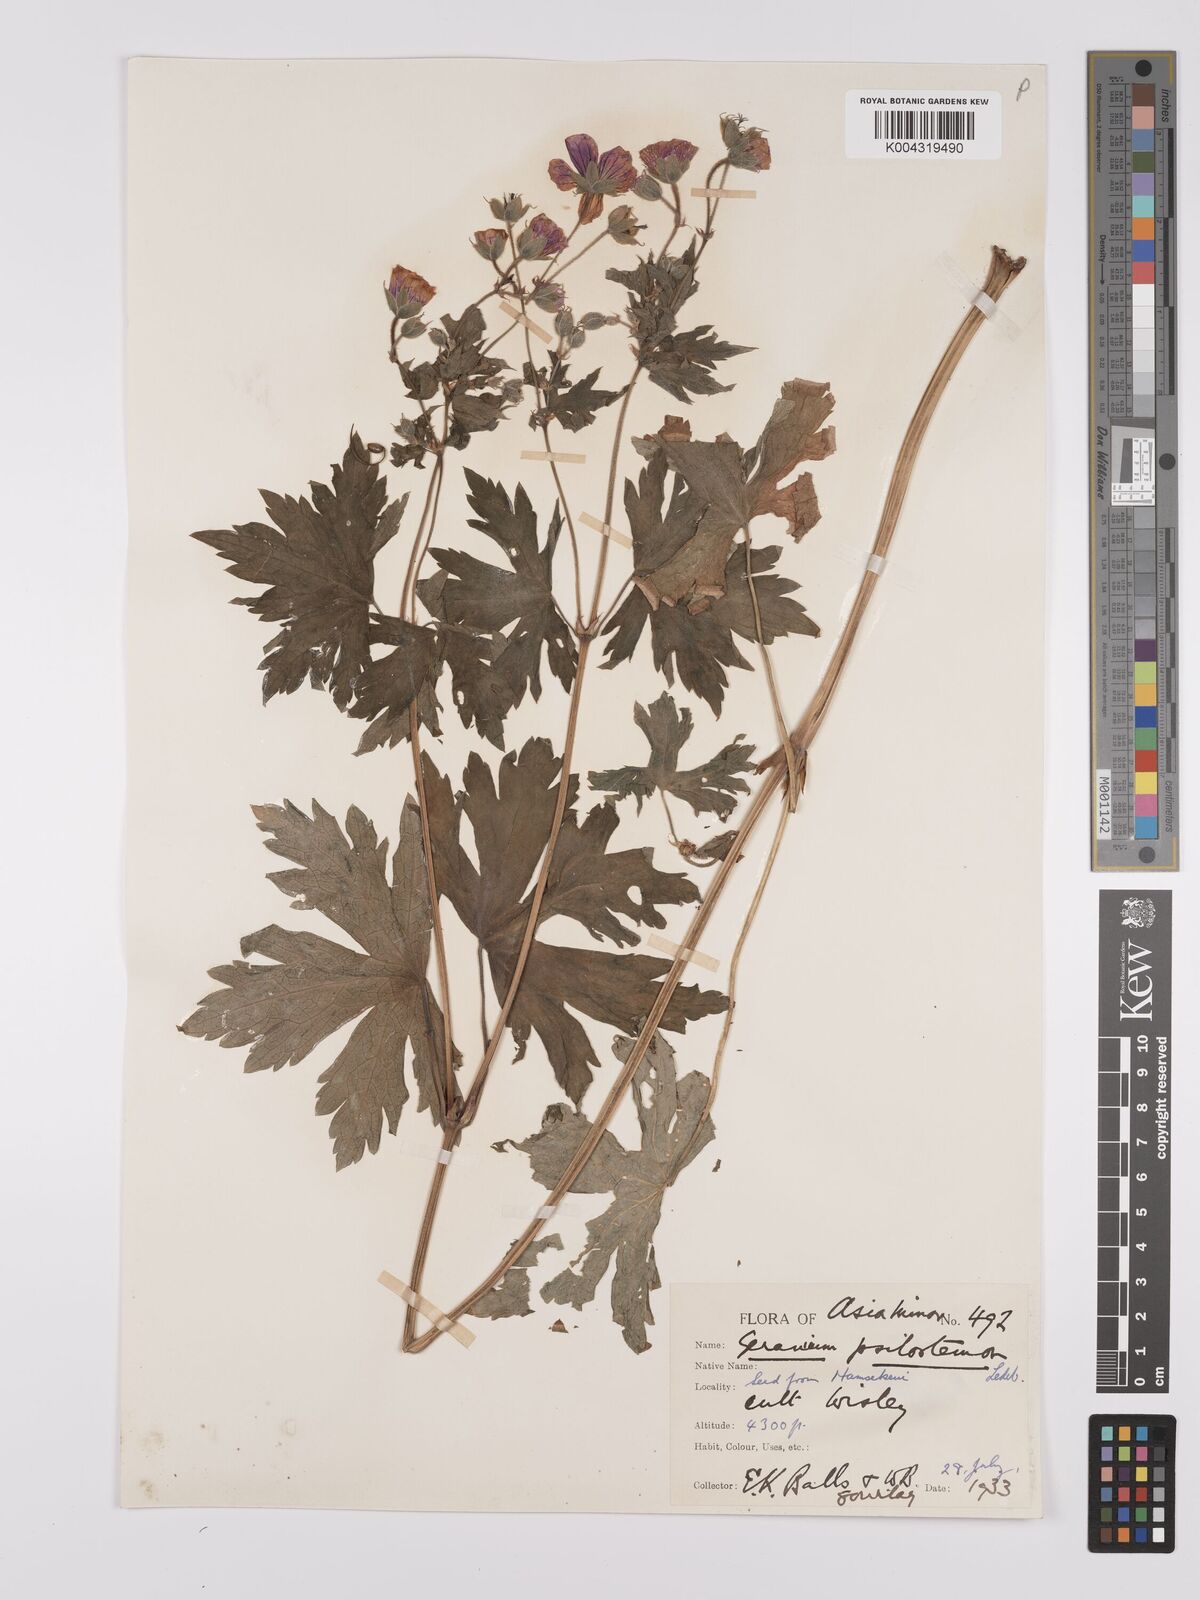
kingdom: Plantae
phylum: Tracheophyta
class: Magnoliopsida
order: Geraniales
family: Geraniaceae
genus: Geranium
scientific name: Geranium psilostemon
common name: Armenian crane's-bill
